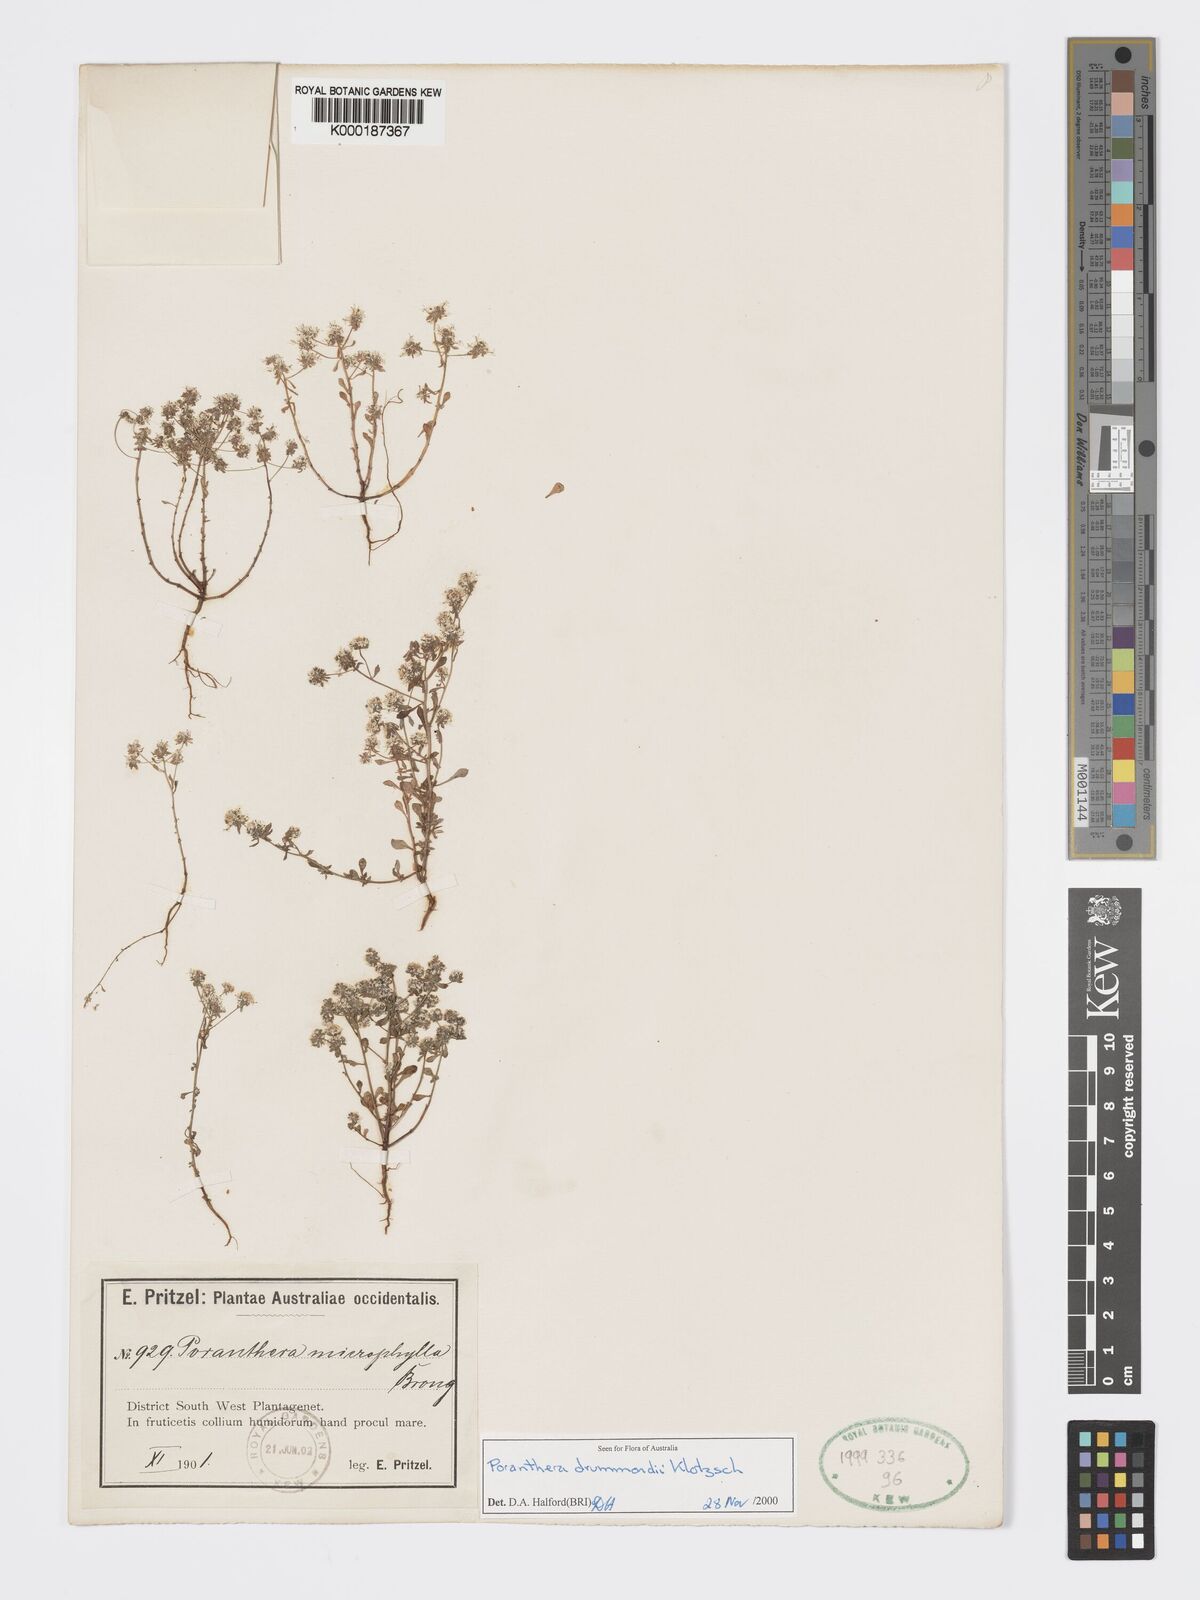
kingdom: Plantae
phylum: Tracheophyta
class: Magnoliopsida
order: Malpighiales
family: Phyllanthaceae
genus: Poranthera
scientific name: Poranthera drummondii
